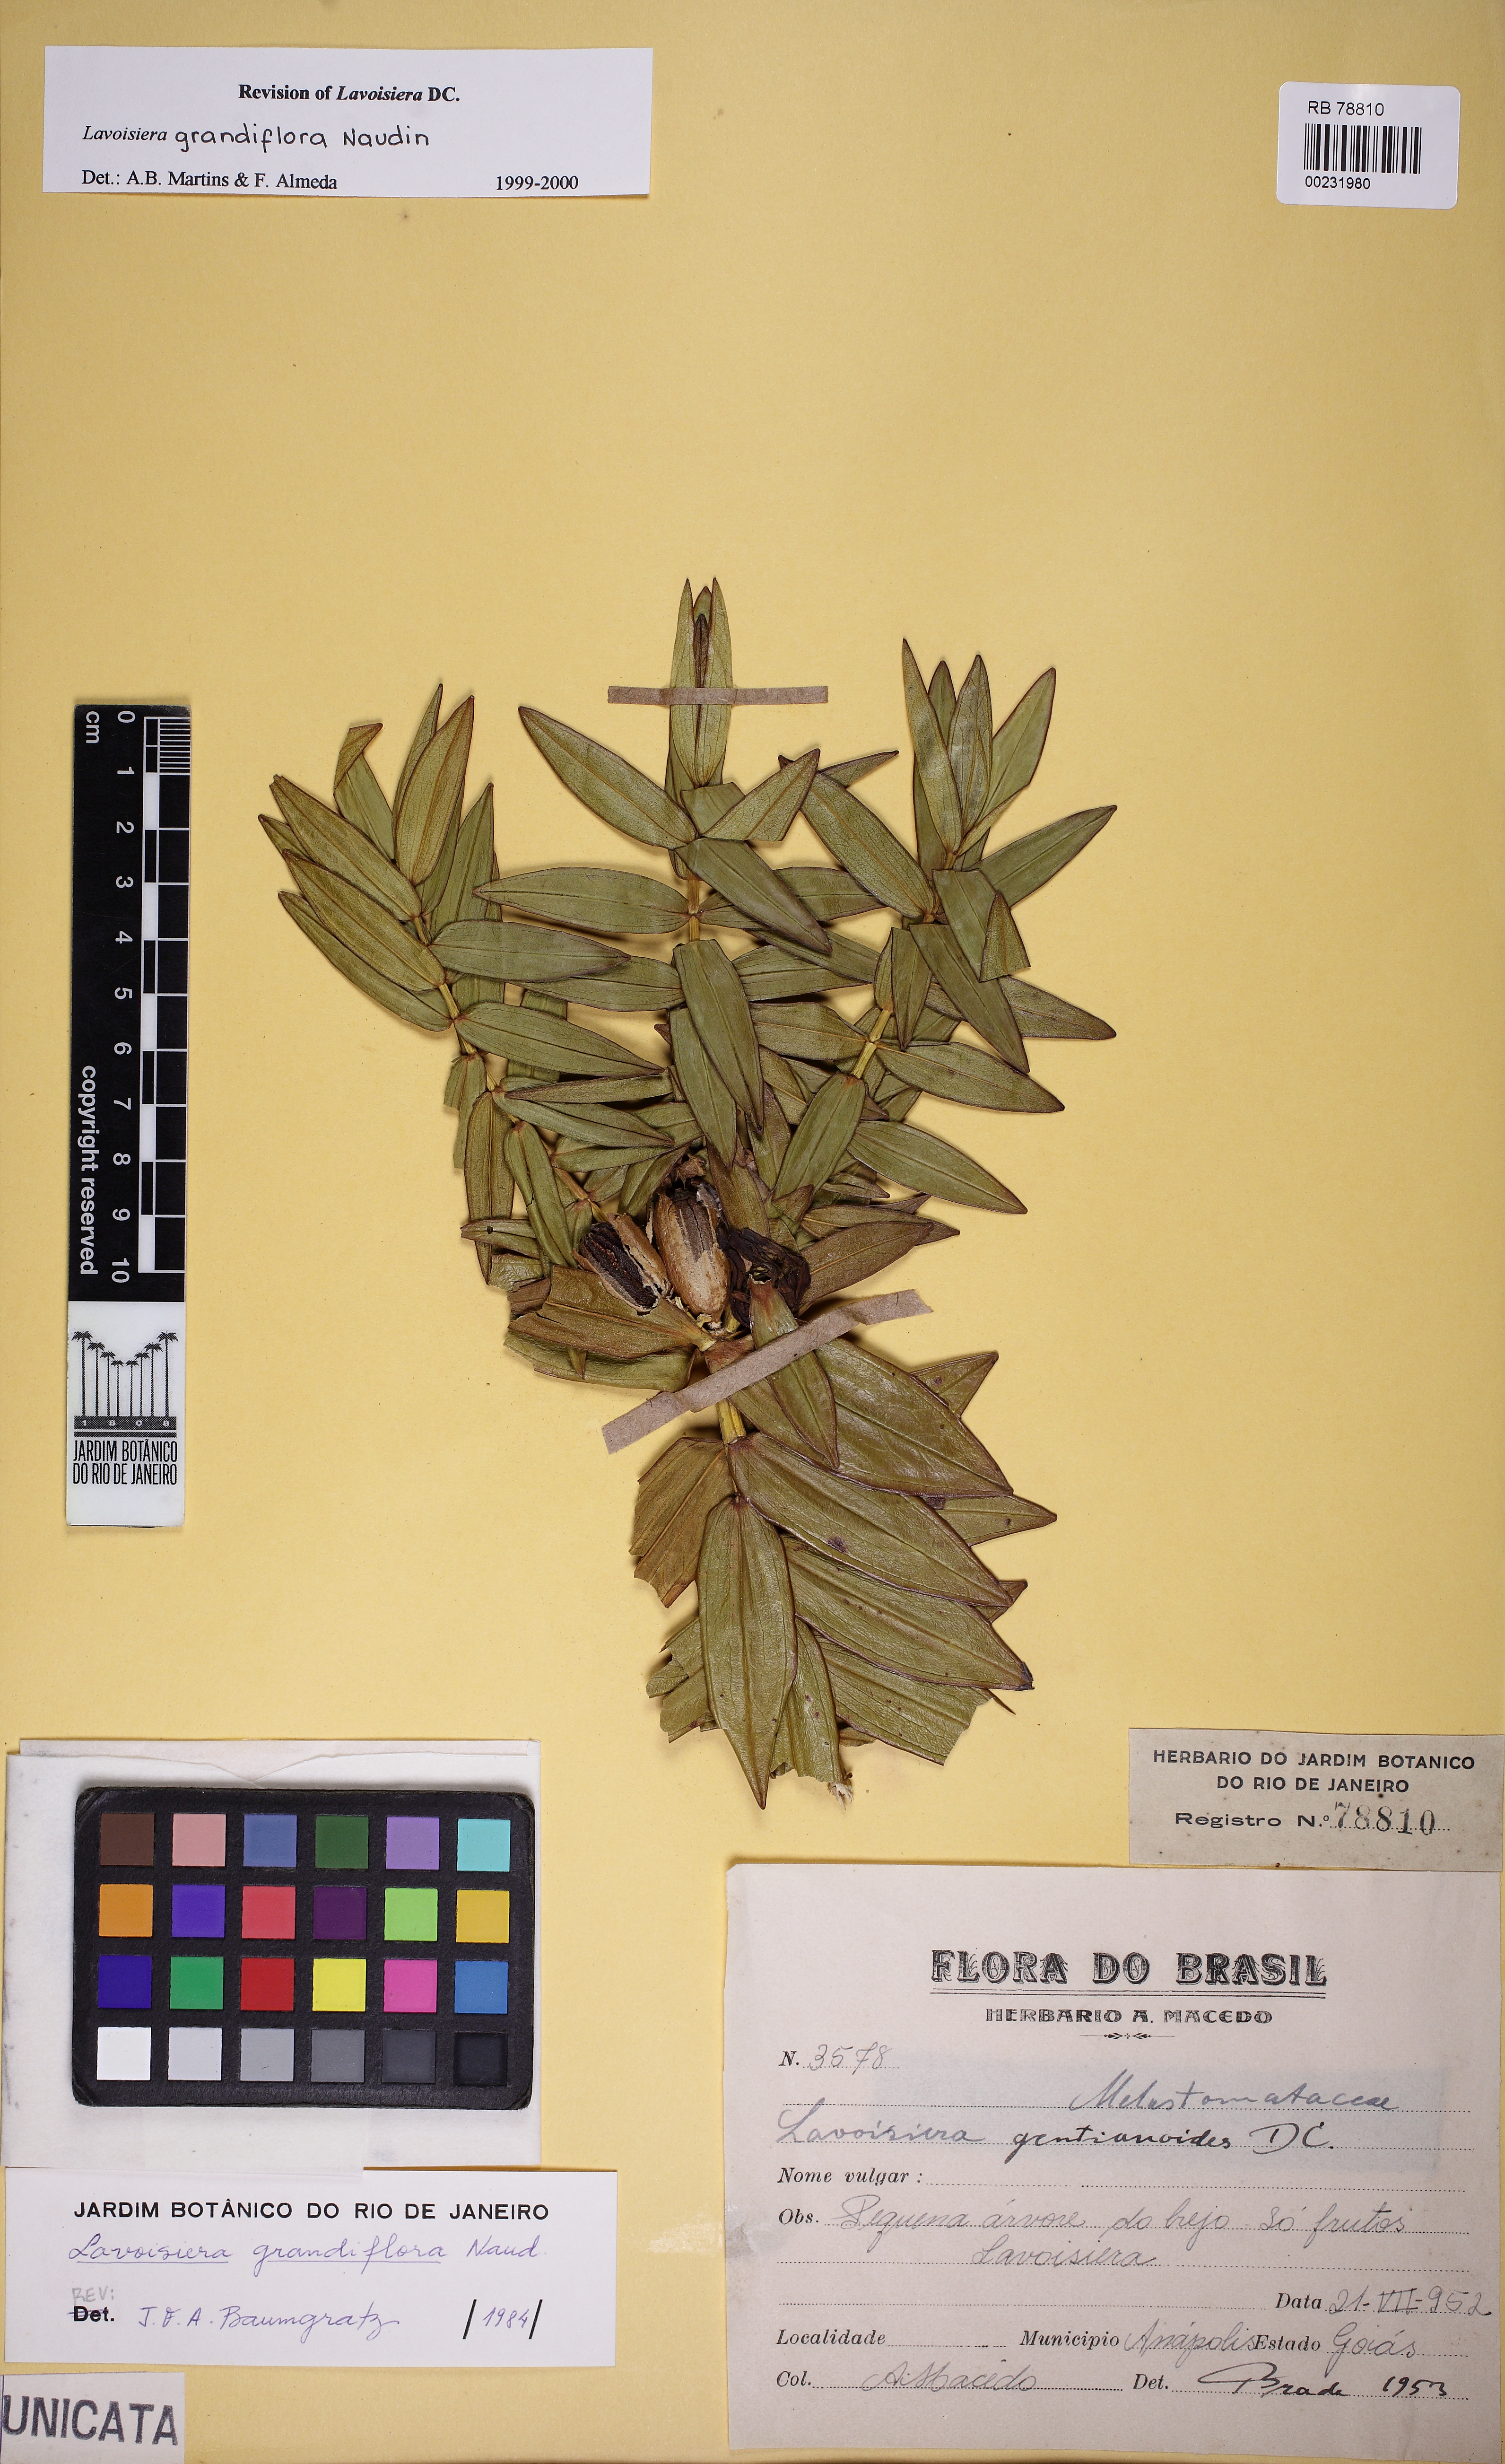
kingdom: Plantae
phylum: Tracheophyta
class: Magnoliopsida
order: Myrtales
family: Melastomataceae
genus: Microlicia
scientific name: Microlicia macrantha
